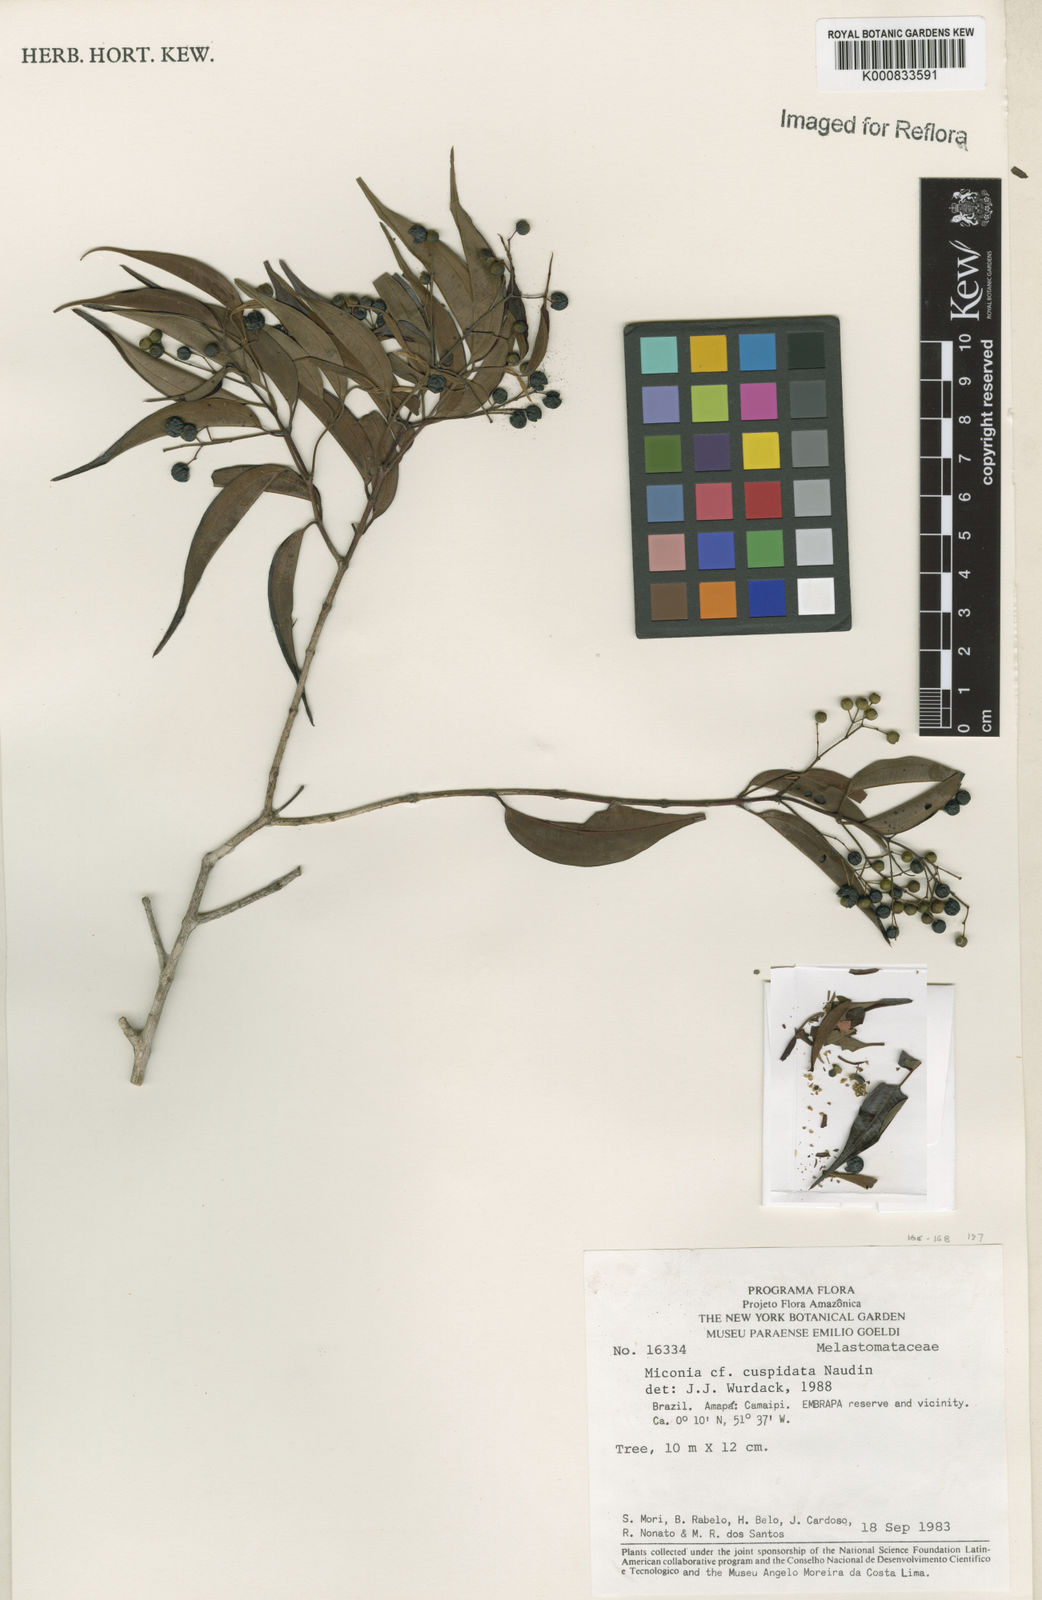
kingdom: Plantae
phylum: Tracheophyta
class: Magnoliopsida
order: Myrtales
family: Melastomataceae
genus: Miconia
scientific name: Miconia cuspidata
